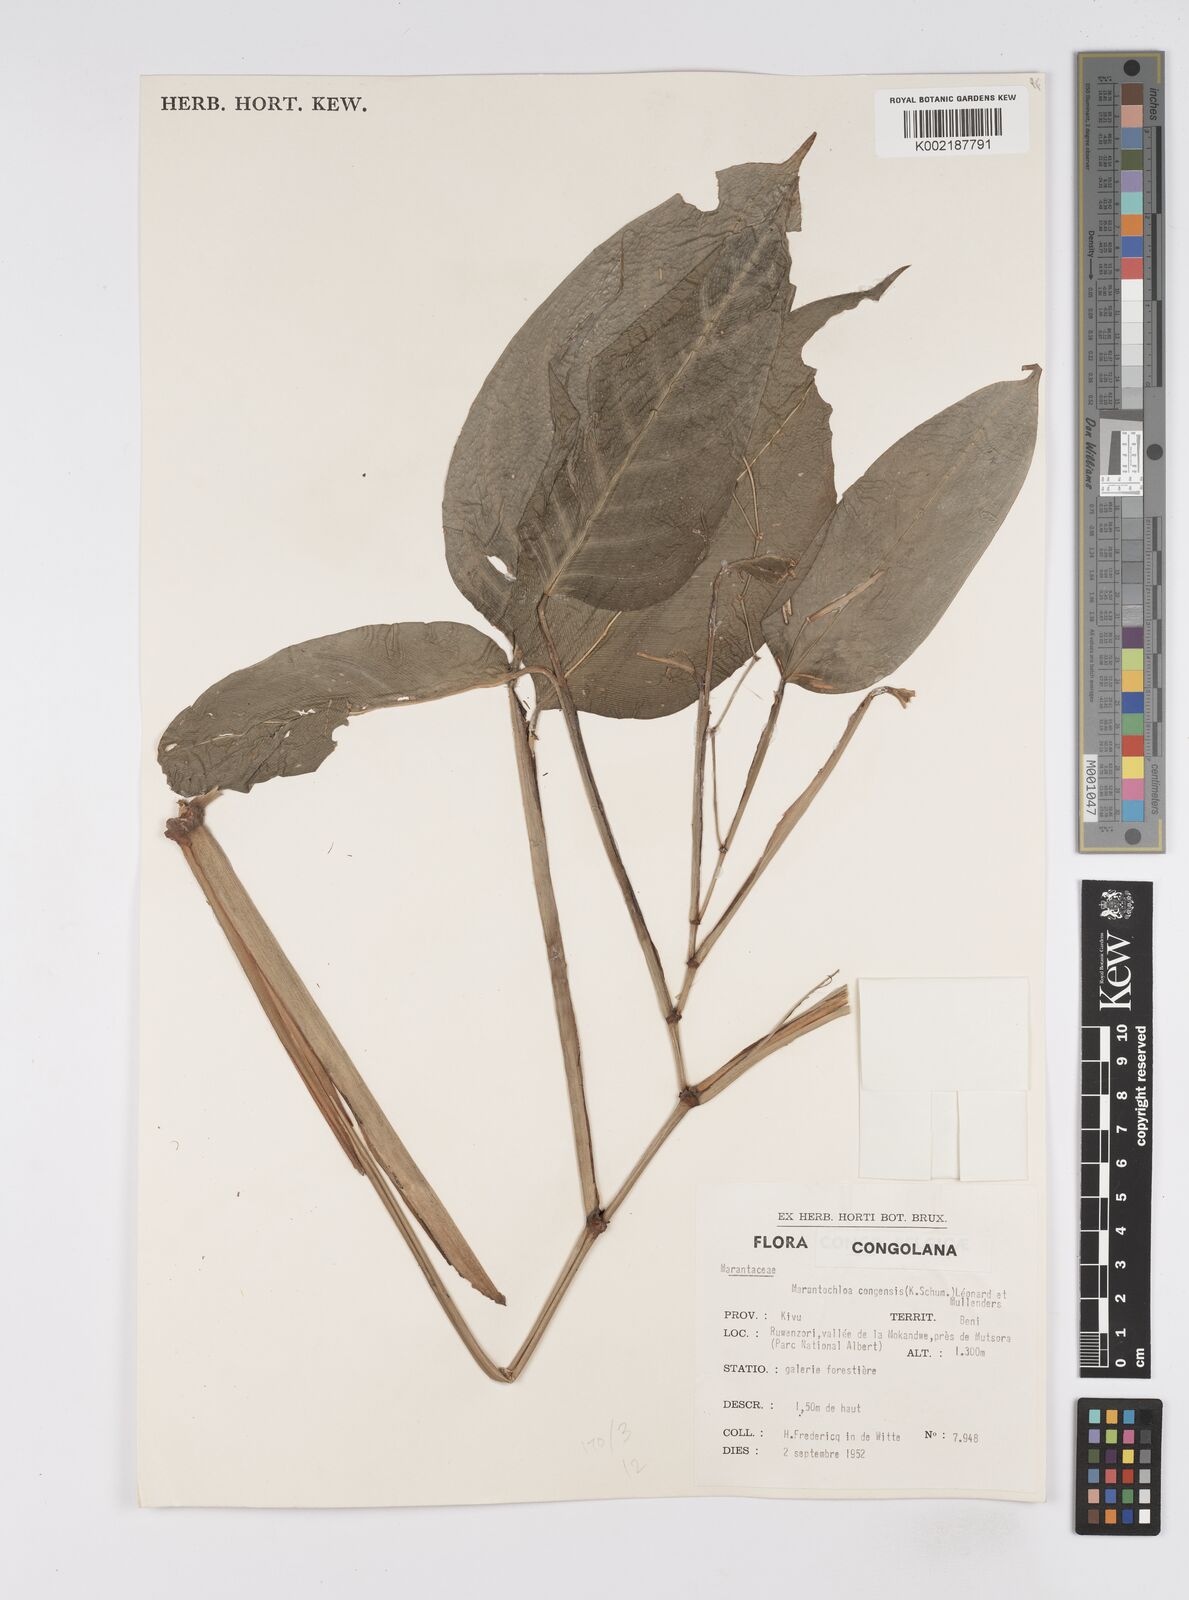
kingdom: Plantae
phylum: Tracheophyta
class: Liliopsida
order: Zingiberales
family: Marantaceae
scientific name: Marantaceae
